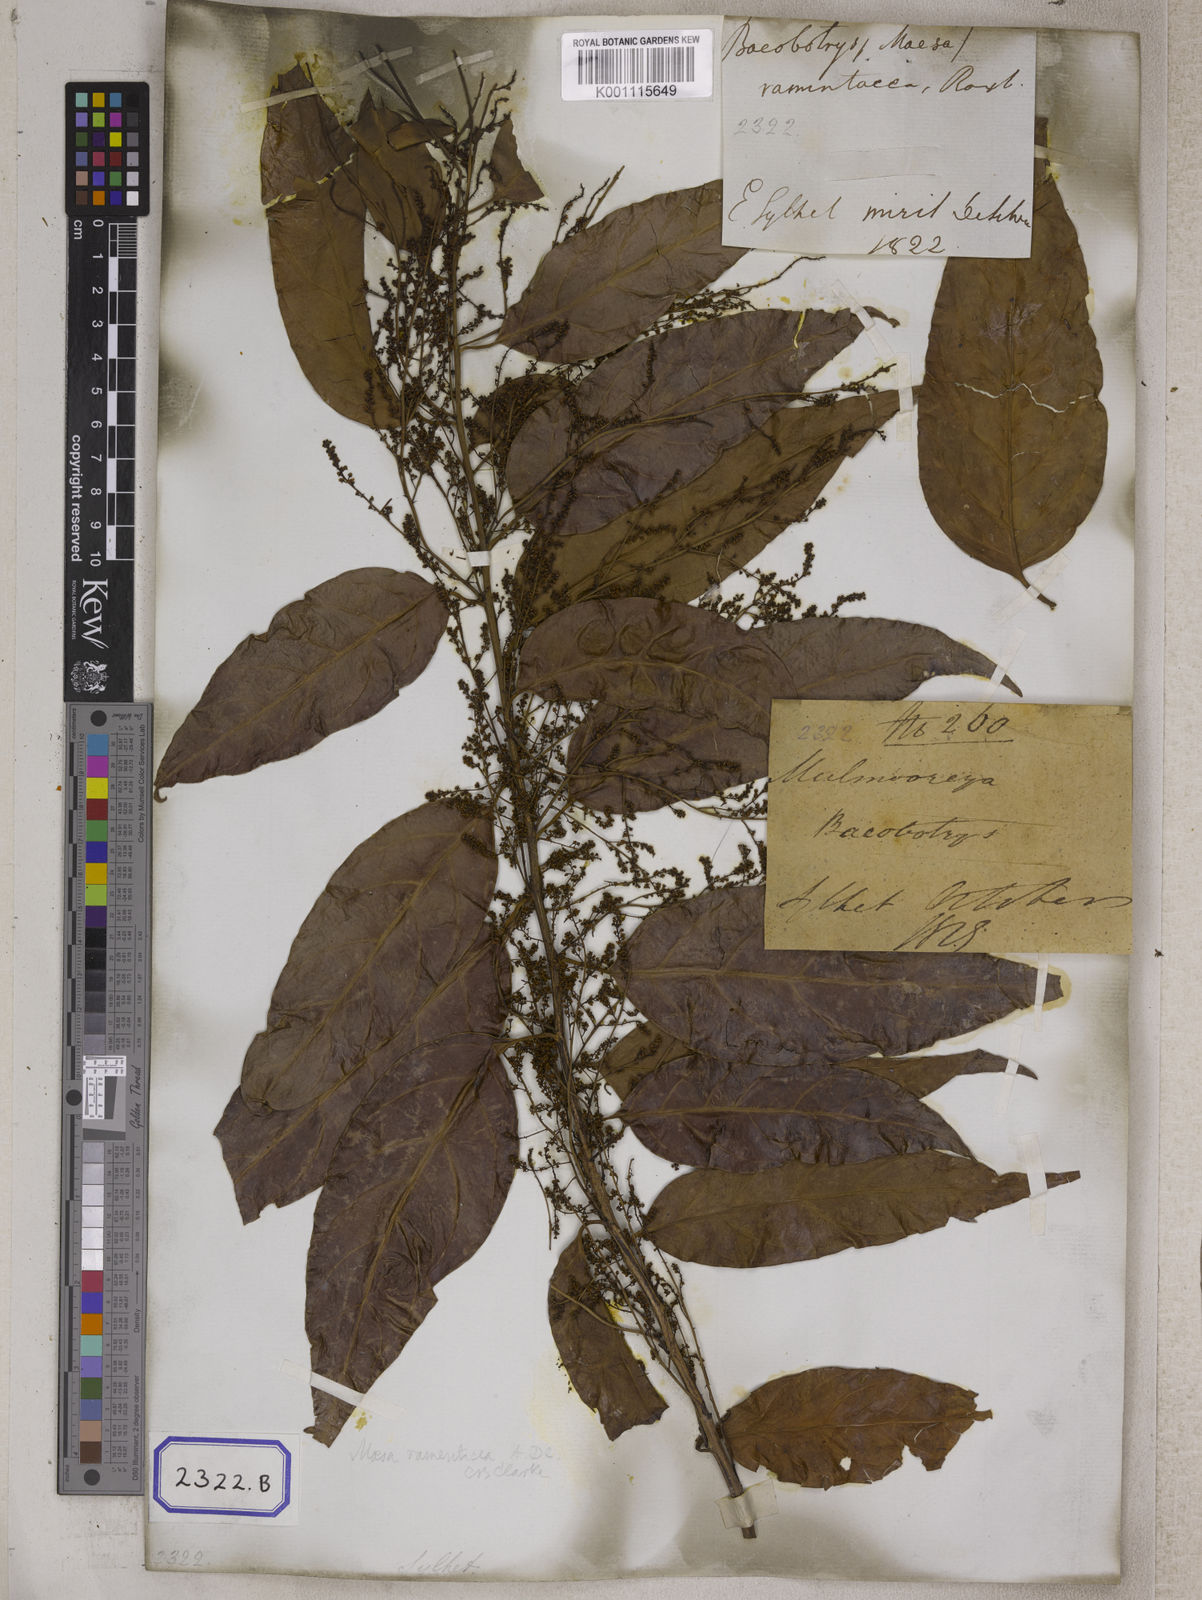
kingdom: Plantae
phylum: Tracheophyta
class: Magnoliopsida
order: Ericales
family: Primulaceae
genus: Maesa
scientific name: Maesa ramentacea
